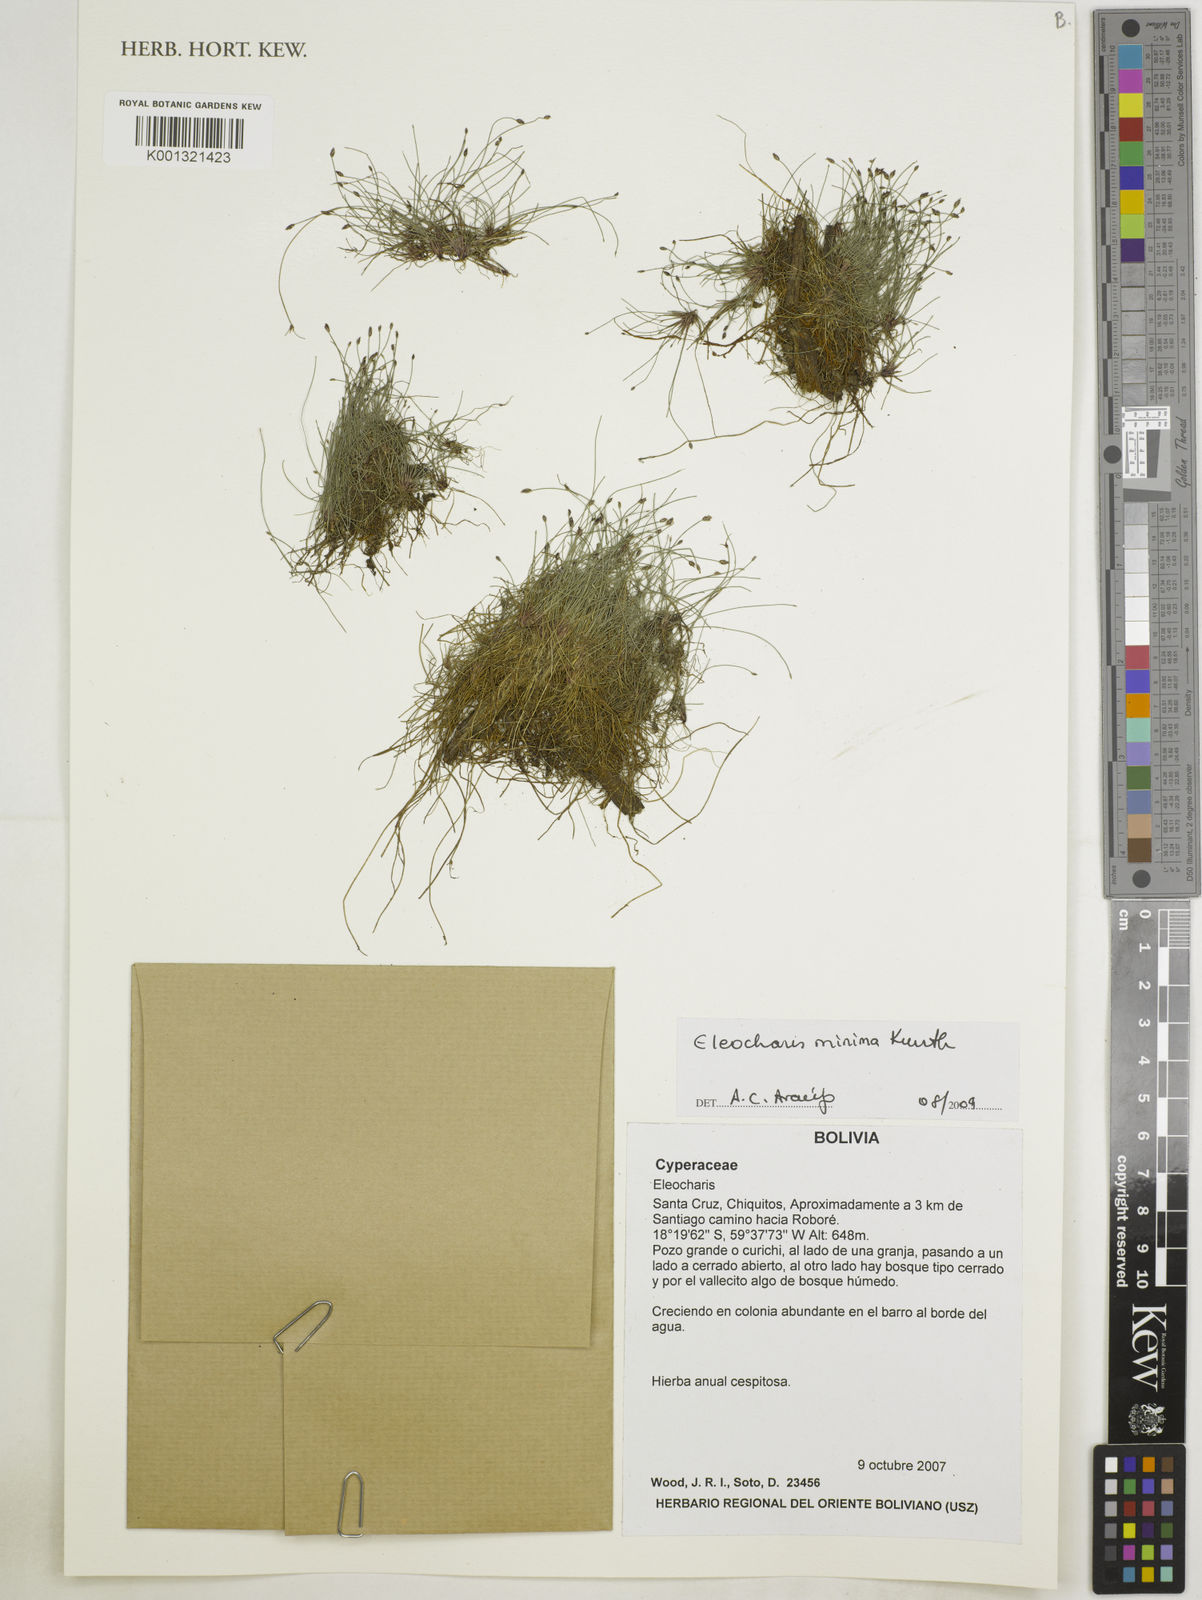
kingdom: Plantae
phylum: Tracheophyta
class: Liliopsida
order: Poales
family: Cyperaceae
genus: Eleocharis
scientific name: Eleocharis minima
